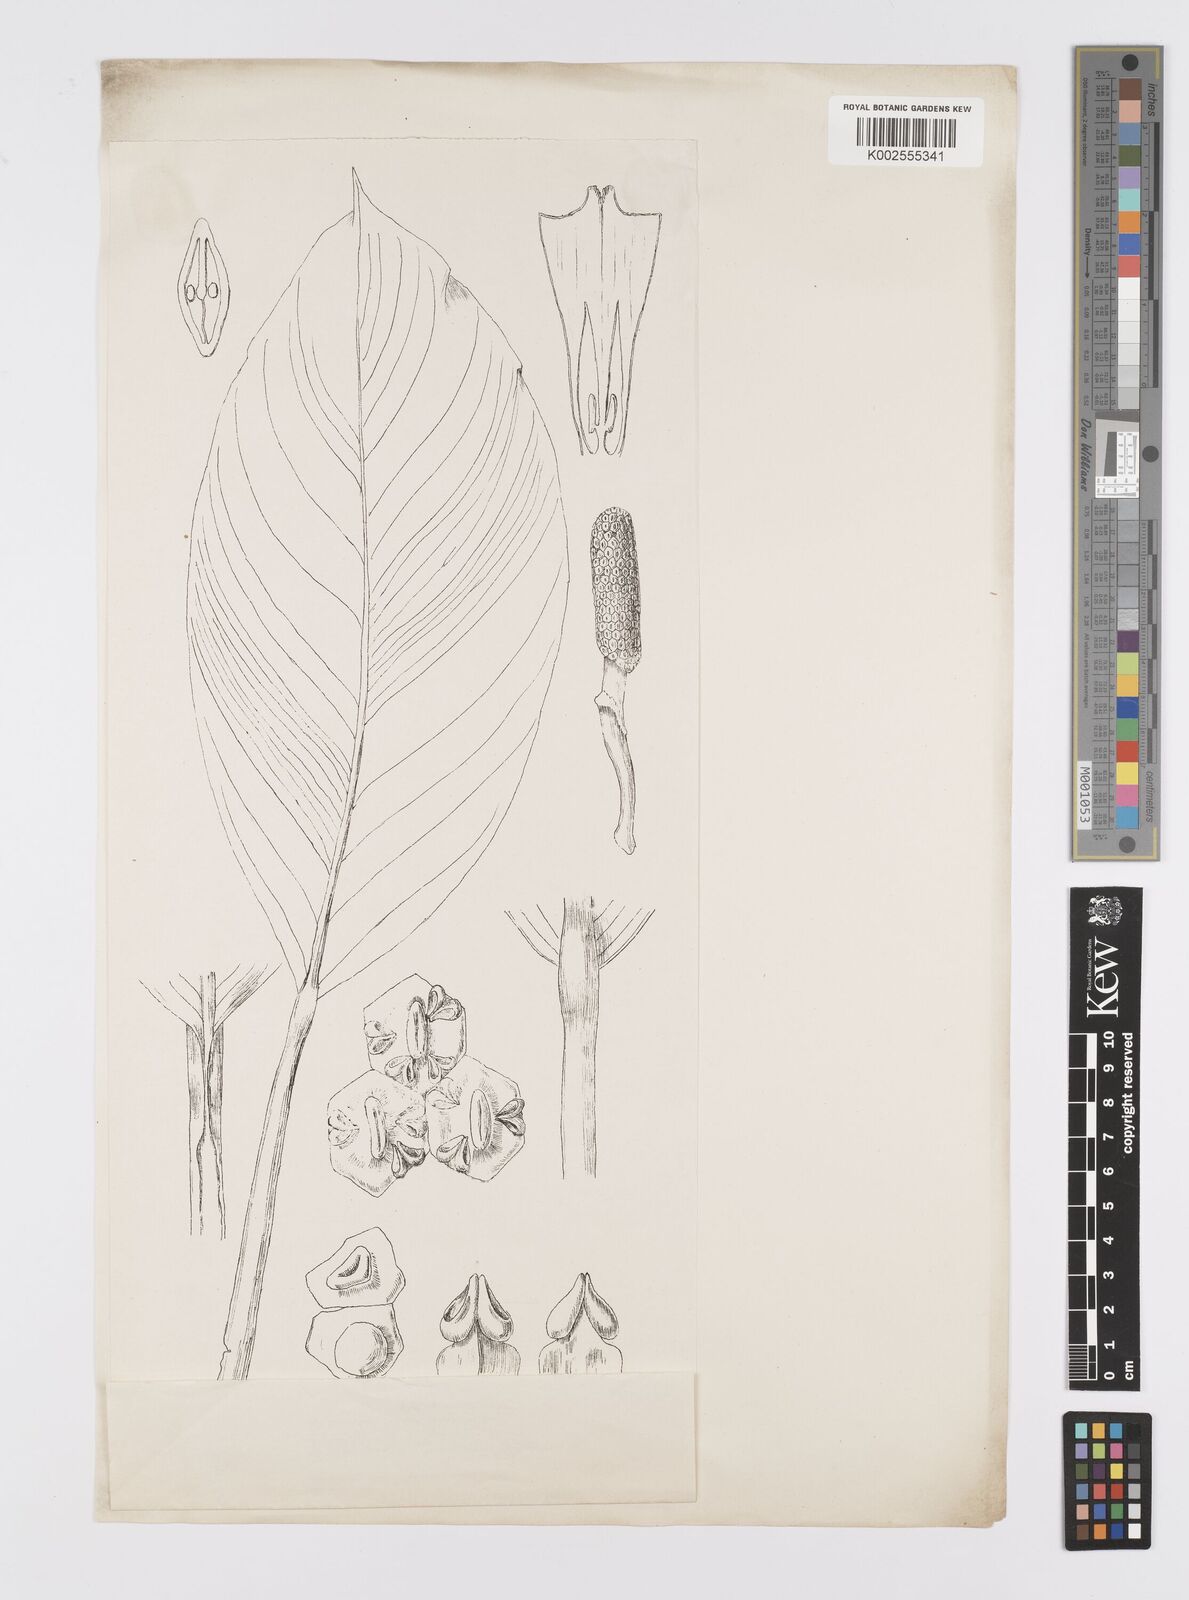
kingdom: Plantae
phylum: Tracheophyta
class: Liliopsida
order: Alismatales
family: Araceae
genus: Epipremnum
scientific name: Epipremnum moluccanum
